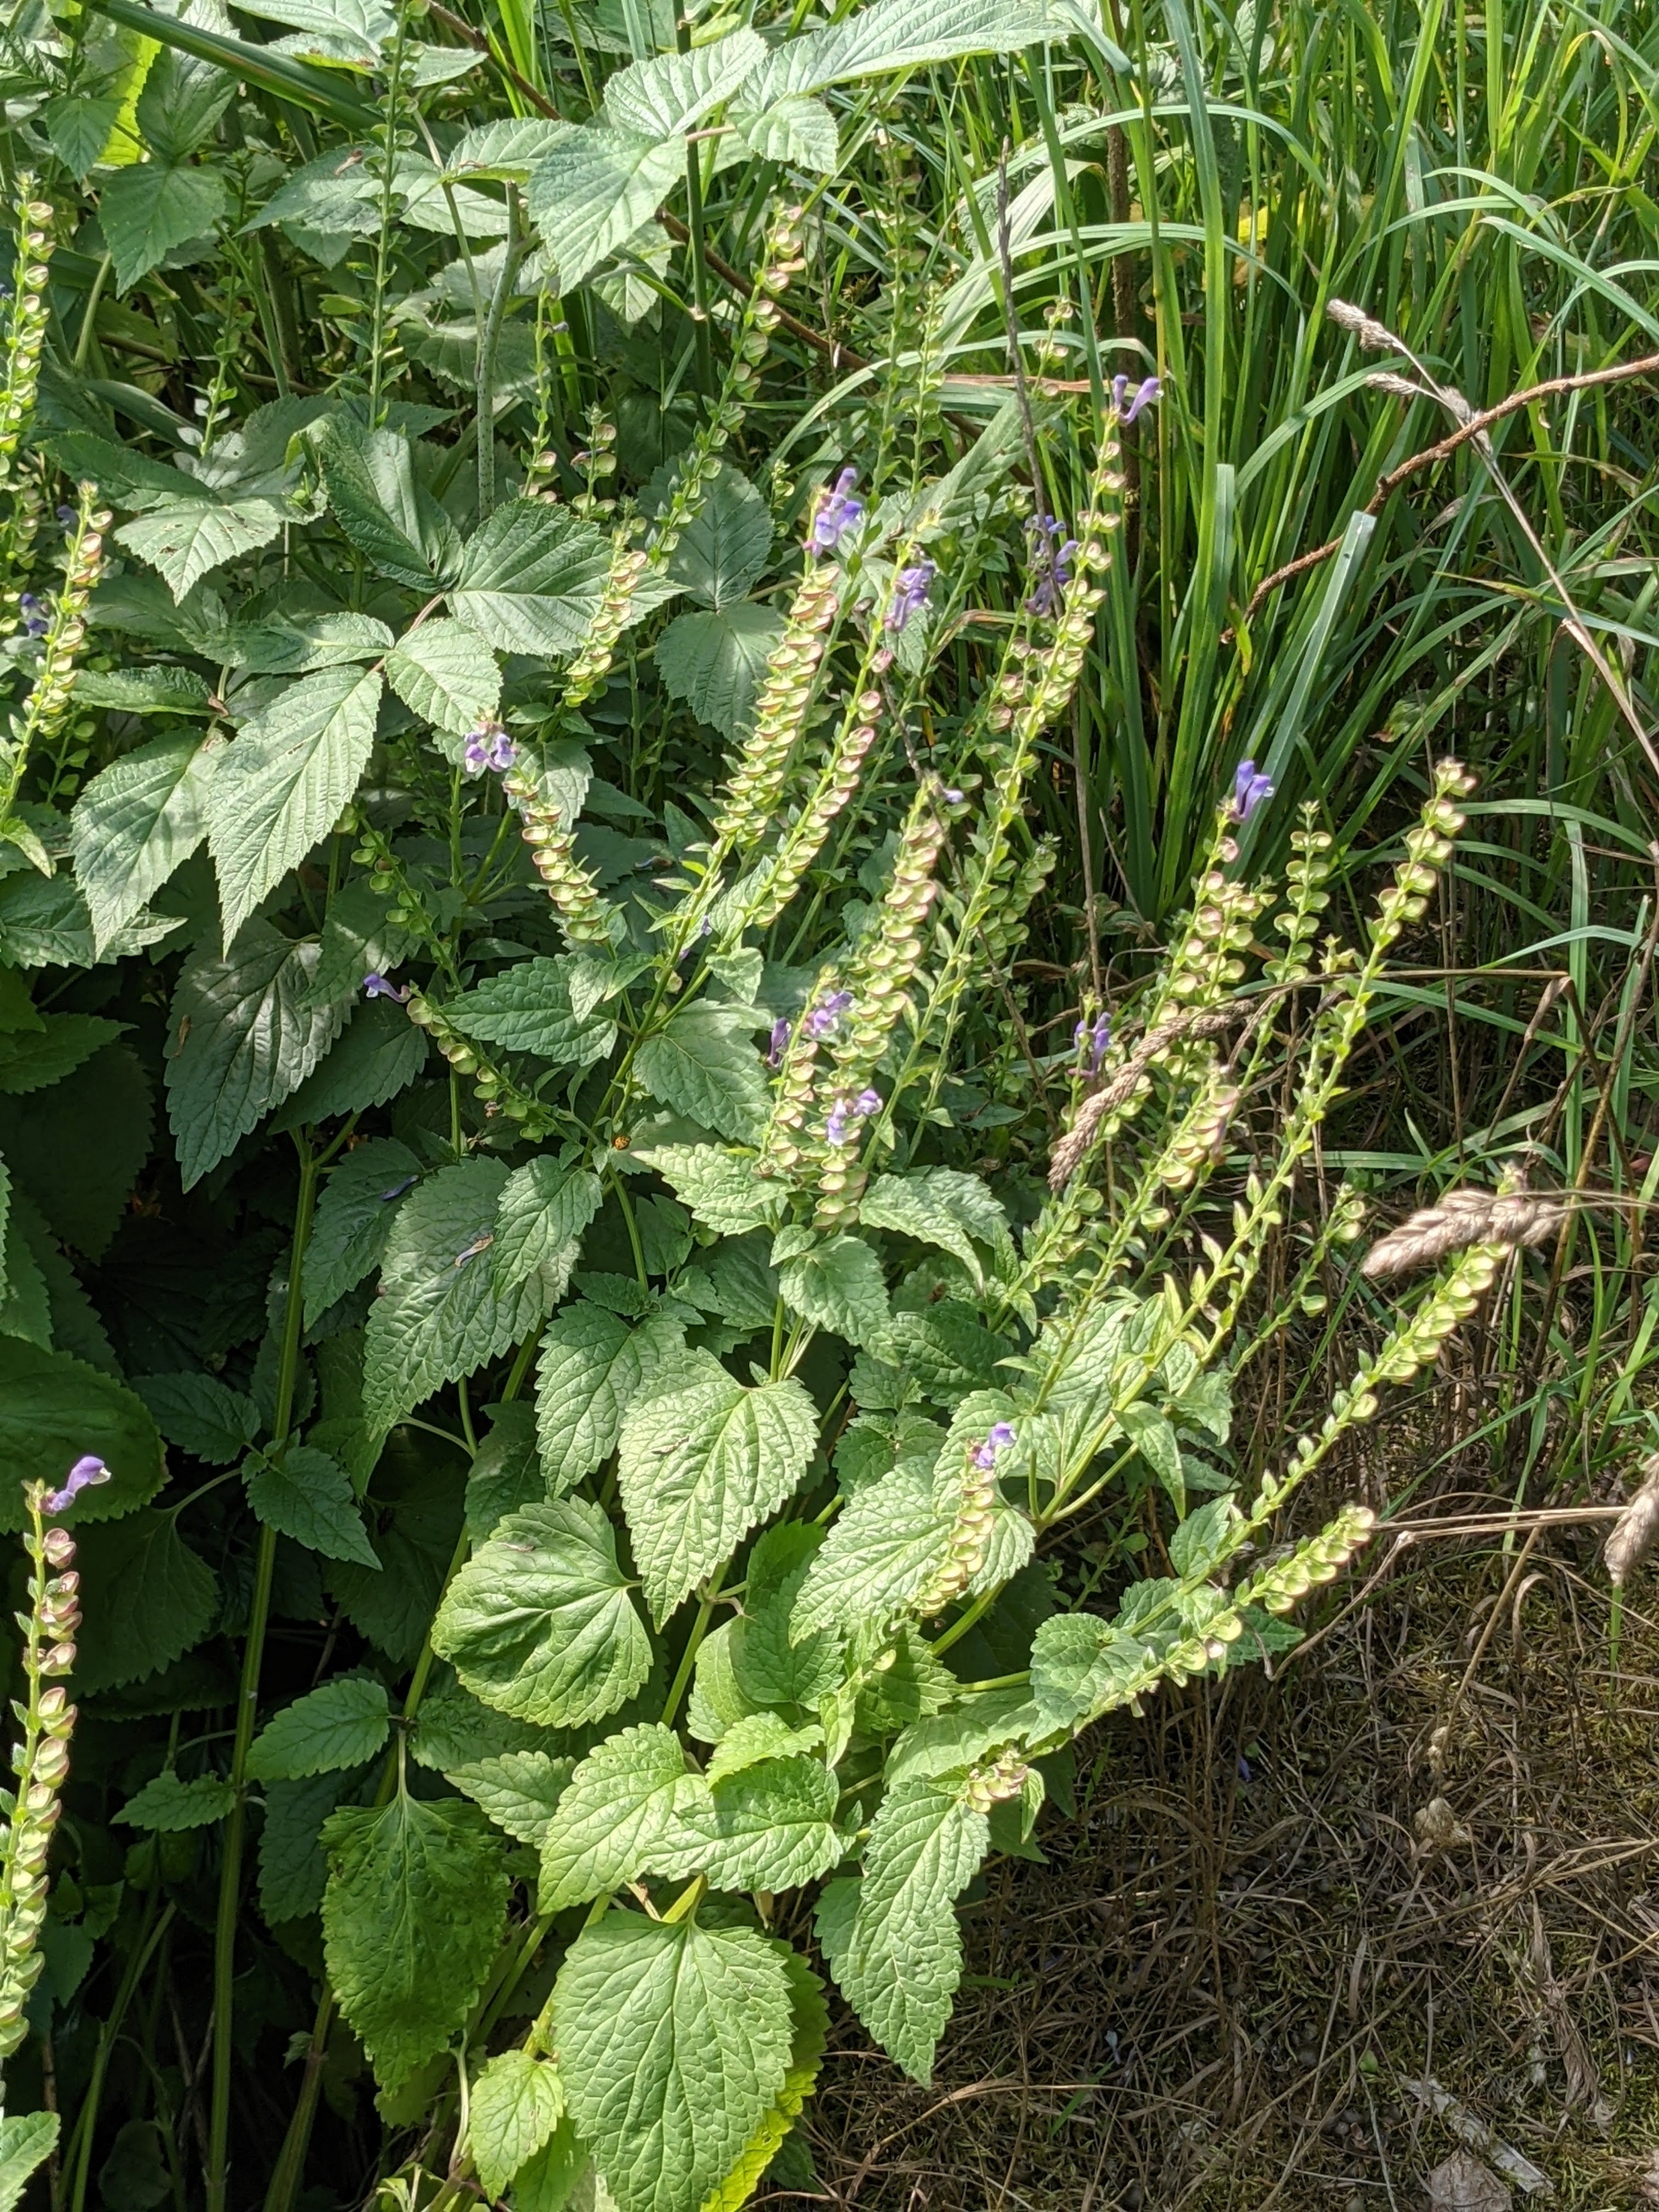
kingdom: Plantae
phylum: Tracheophyta
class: Magnoliopsida
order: Lamiales
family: Lamiaceae
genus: Scutellaria
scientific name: Scutellaria altissima
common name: Høj skjolddrager
